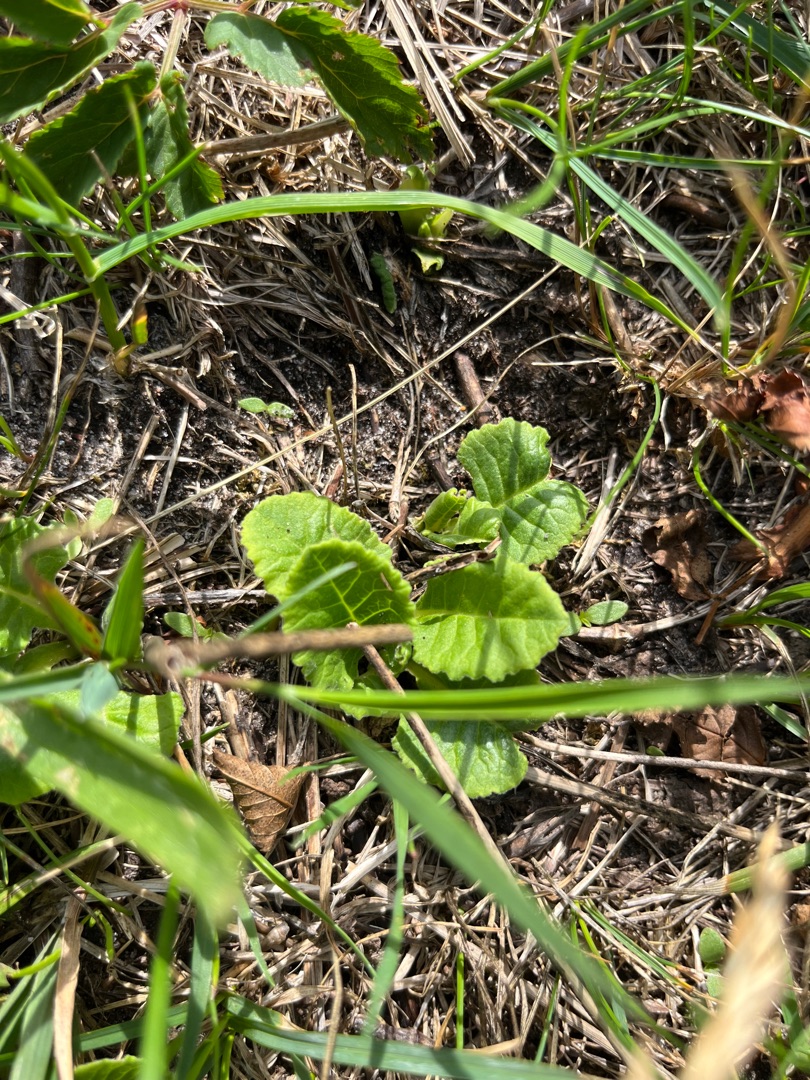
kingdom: Plantae
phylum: Tracheophyta
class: Magnoliopsida
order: Ericales
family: Primulaceae
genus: Primula
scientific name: Primula veris
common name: Hulkravet kodriver
